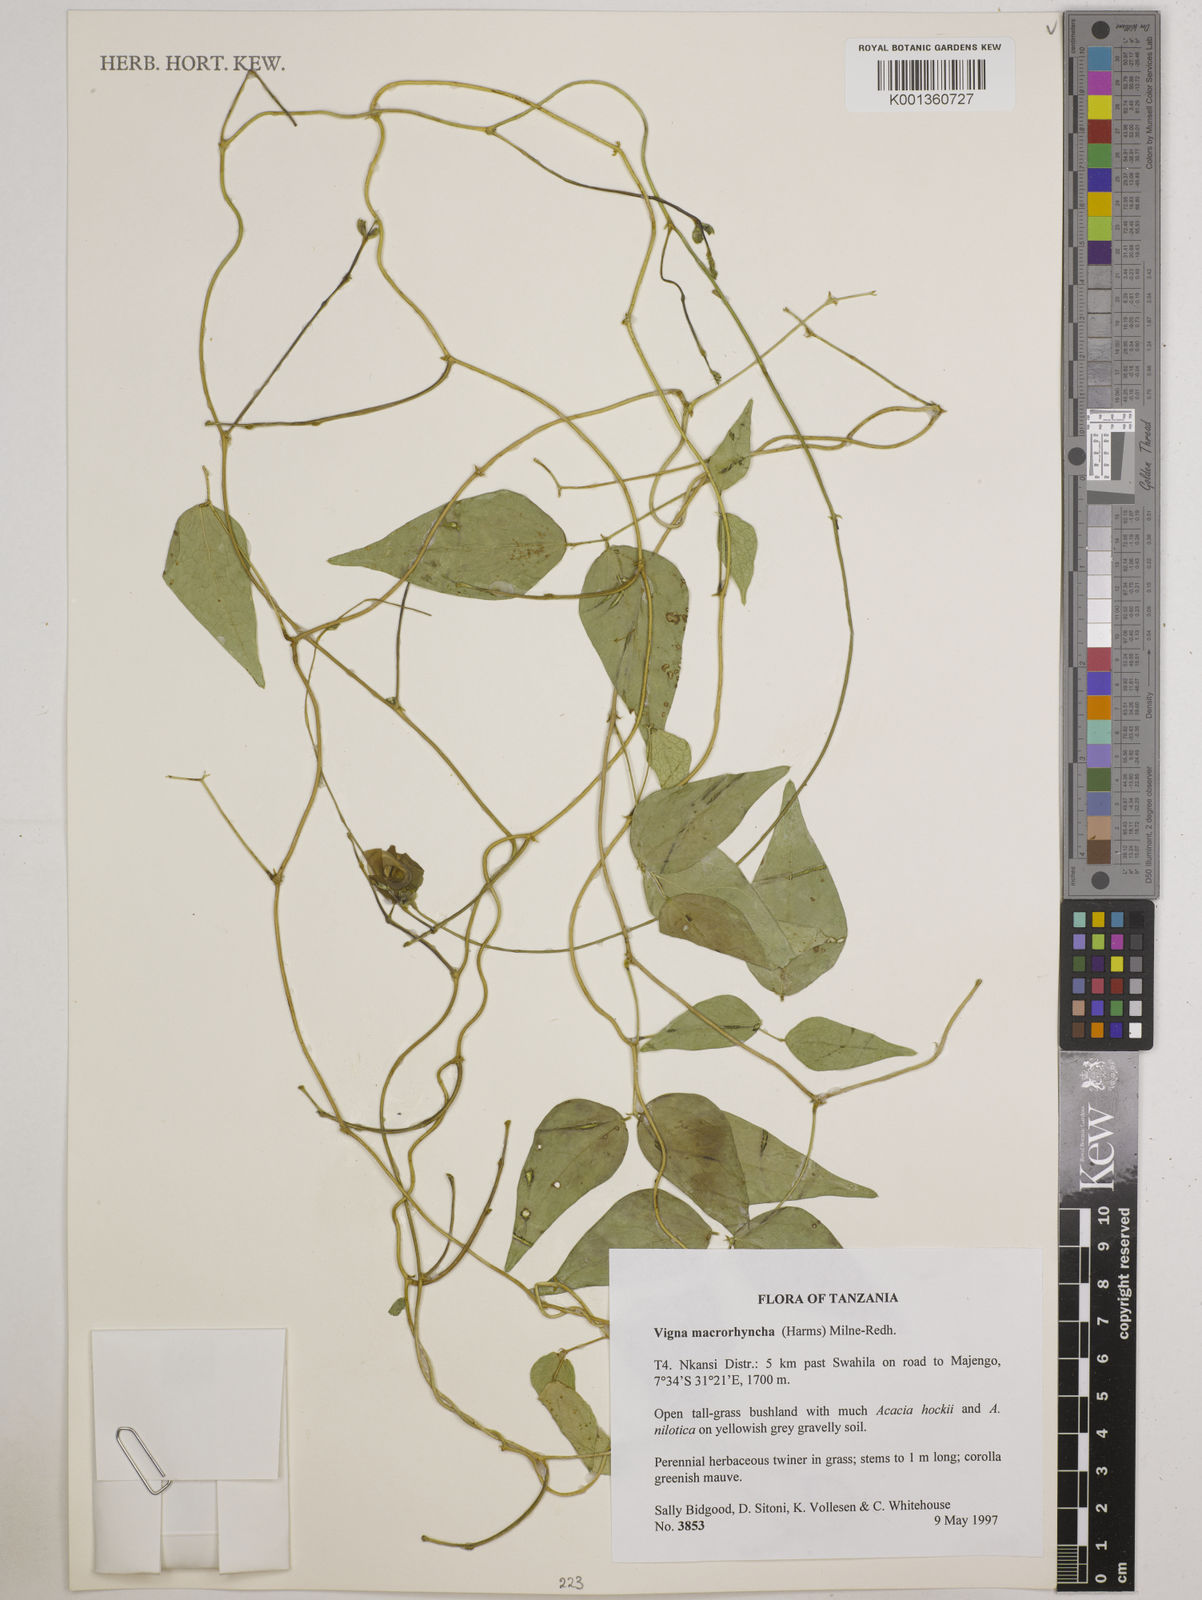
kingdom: Plantae
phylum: Tracheophyta
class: Magnoliopsida
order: Fabales
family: Fabaceae
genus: Wajira
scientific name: Wajira grahamiana
